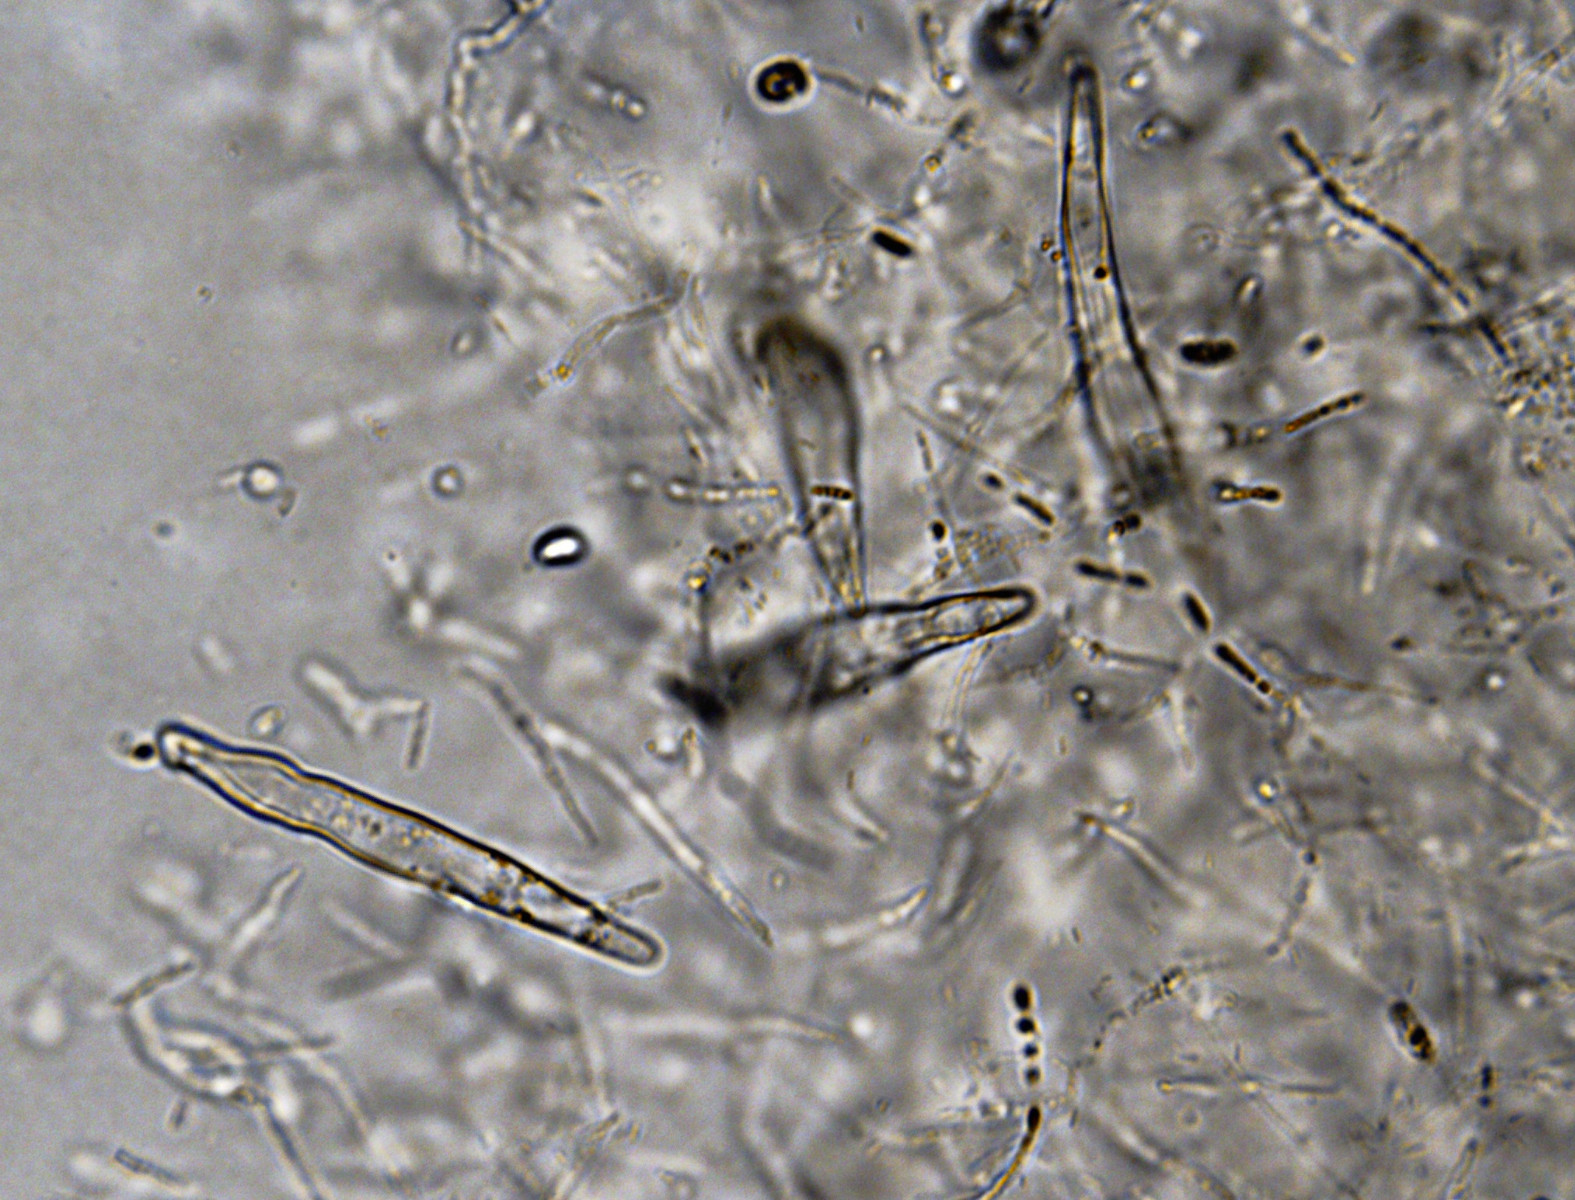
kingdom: Fungi
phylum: Basidiomycota
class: Agaricomycetes
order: Agaricales
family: Physalacriaceae
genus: Flammulina
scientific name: Flammulina elastica
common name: pile-fløjlsfod
